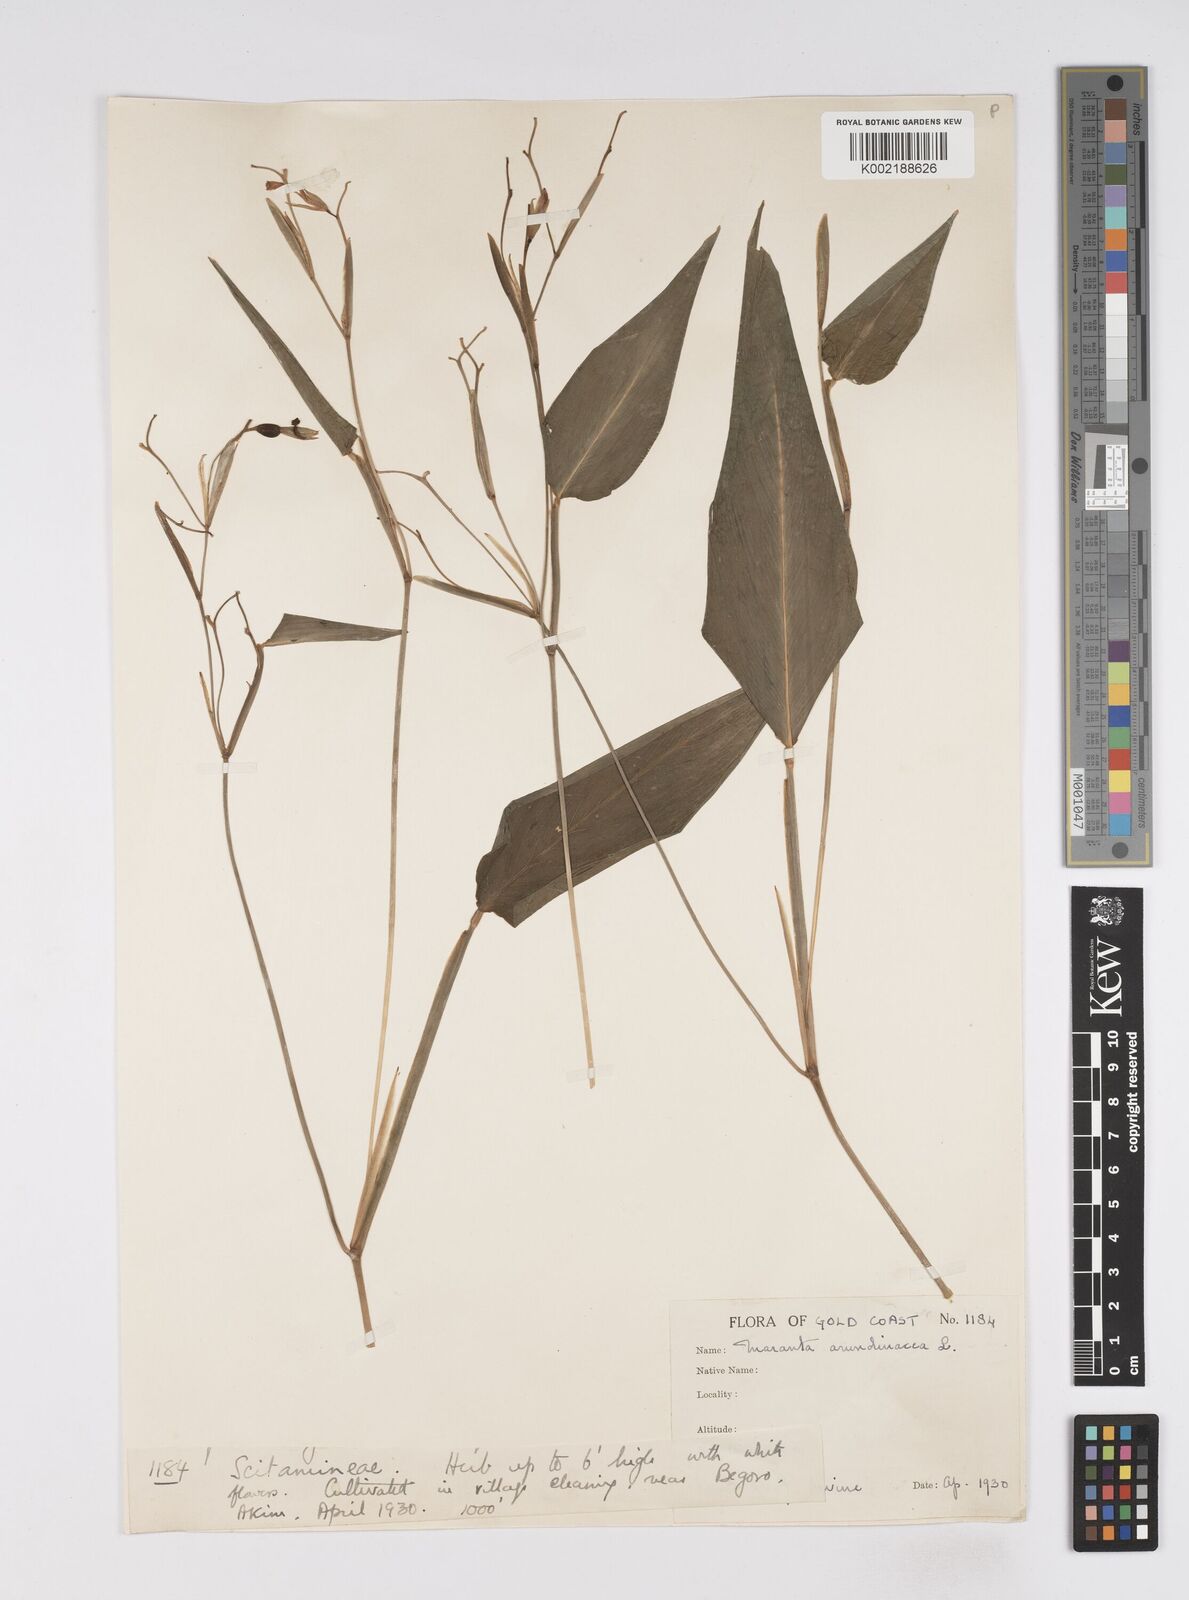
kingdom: Plantae
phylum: Tracheophyta
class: Liliopsida
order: Zingiberales
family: Marantaceae
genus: Maranta
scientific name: Maranta arundinacea
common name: Arrowroot
